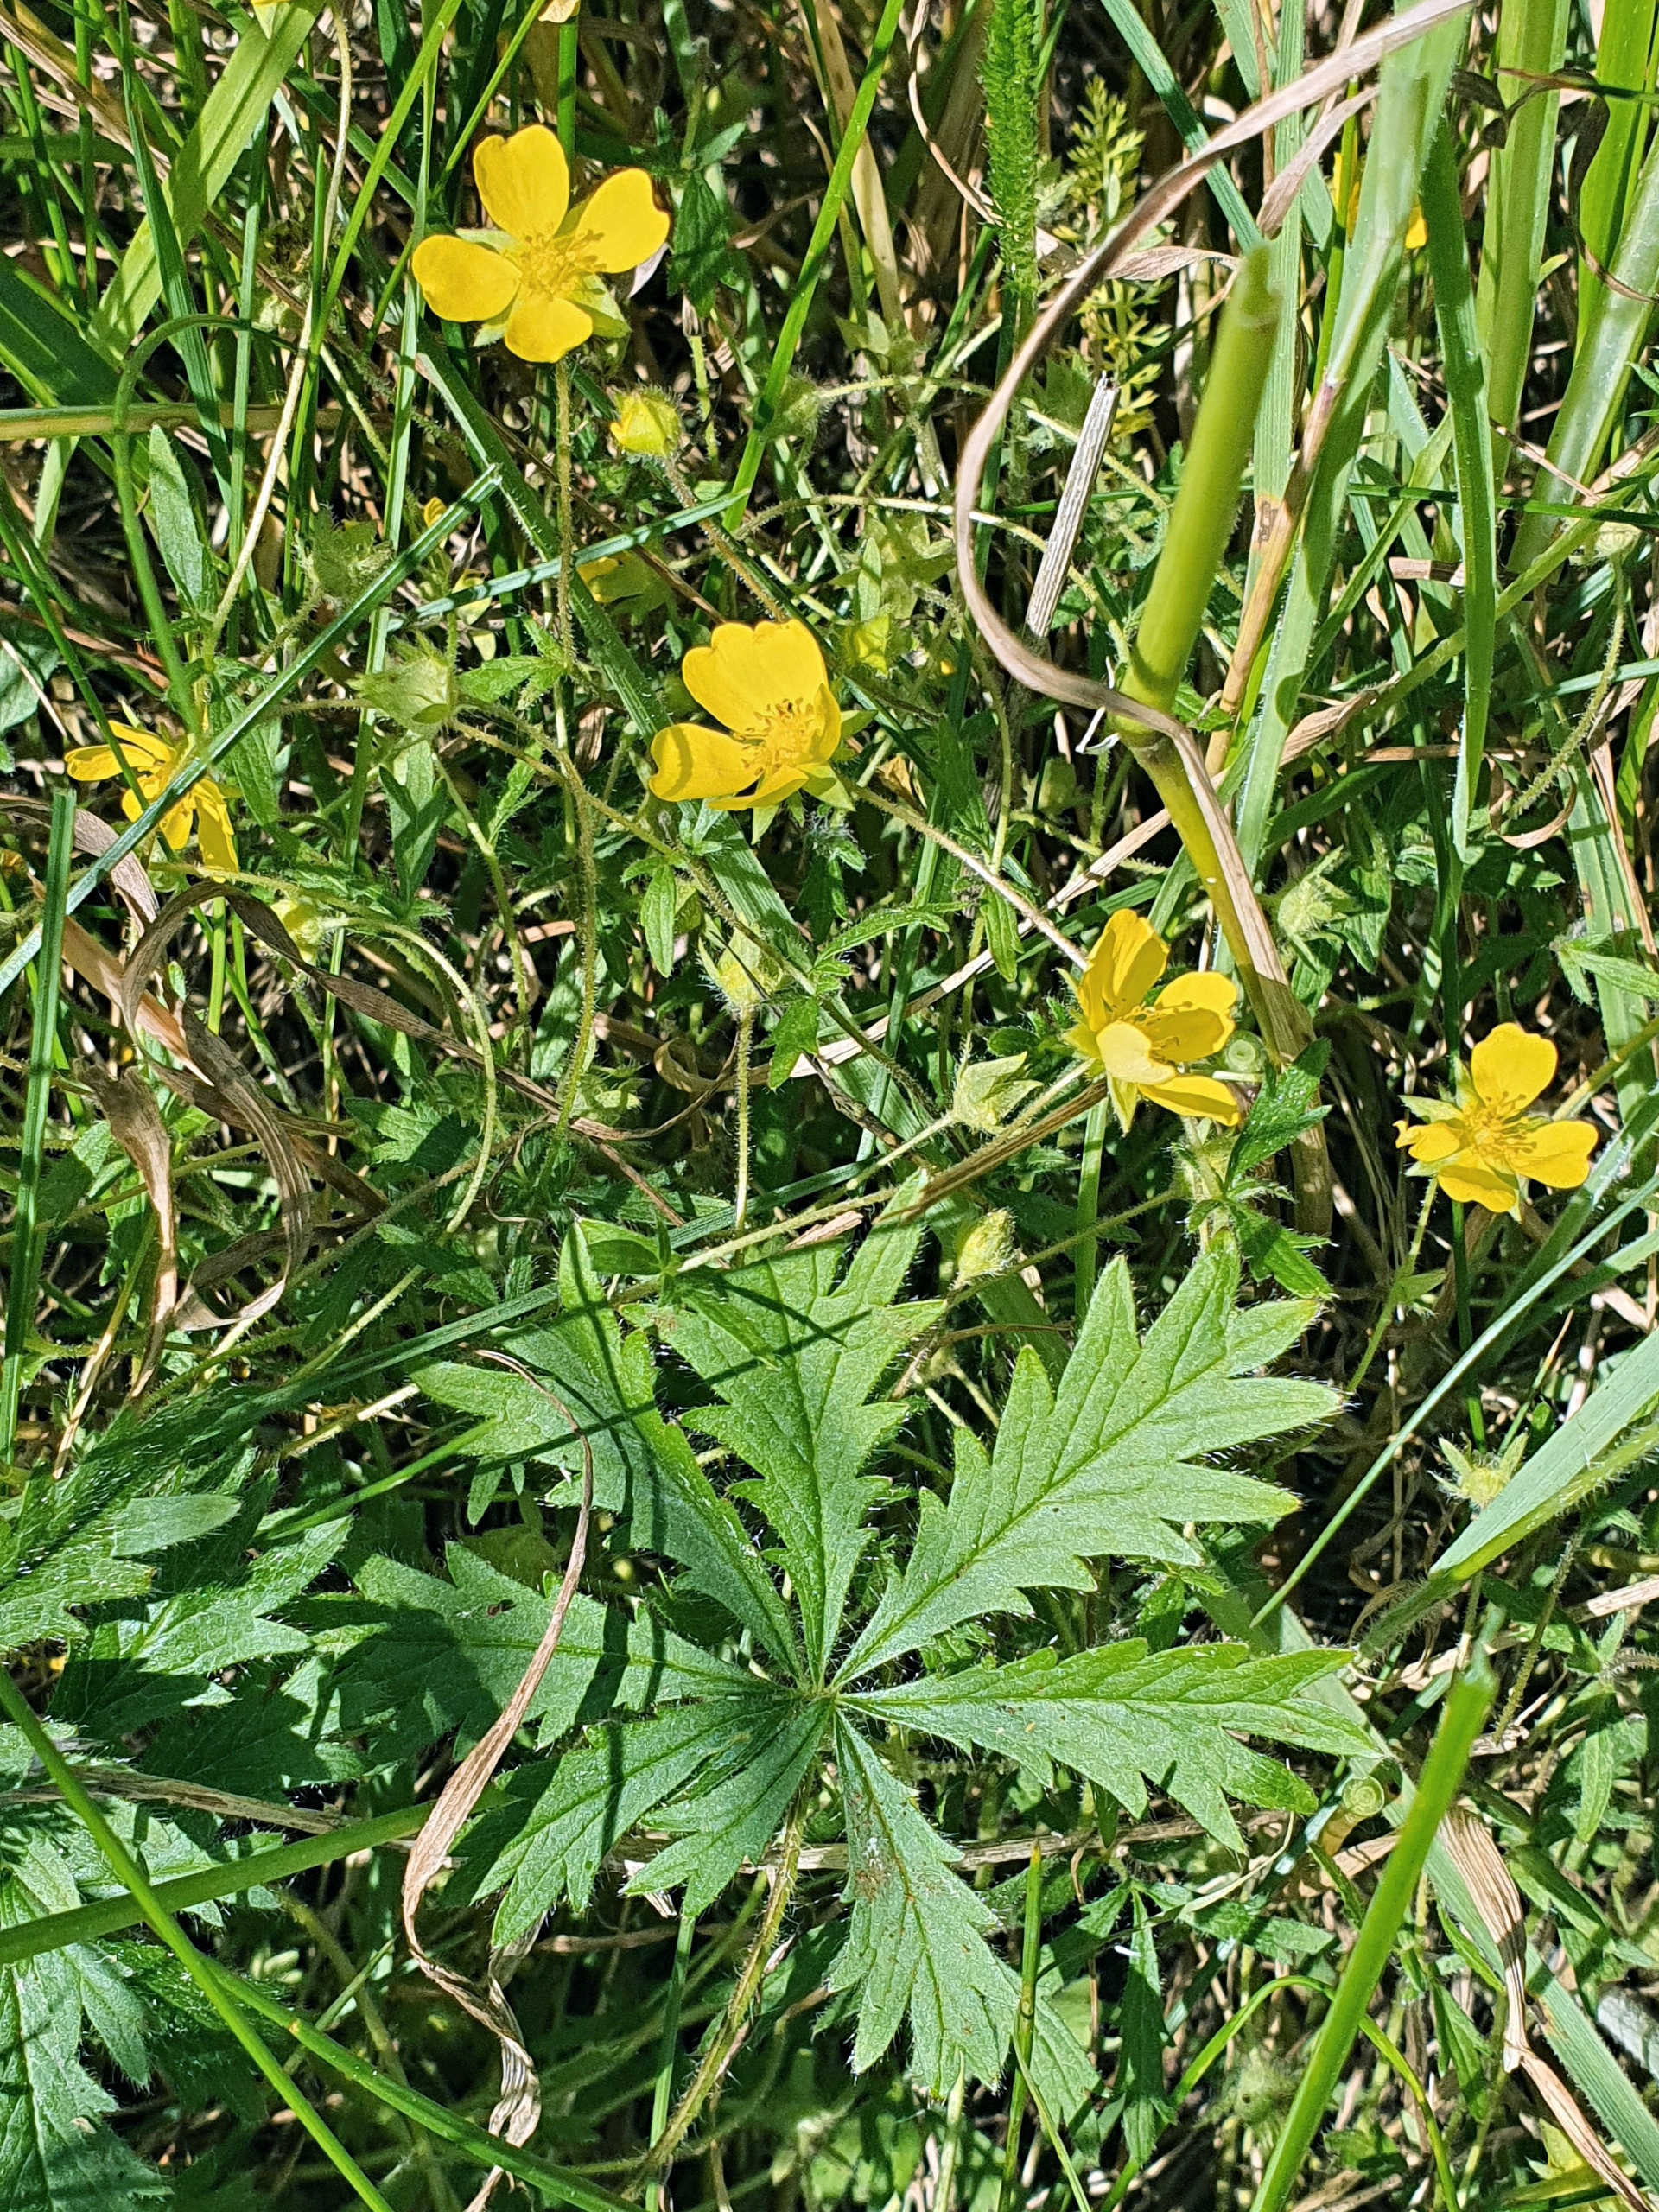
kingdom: Plantae
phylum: Tracheophyta
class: Magnoliopsida
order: Rosales
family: Rosaceae
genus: Potentilla
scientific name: Potentilla heptaphylla
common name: Mat potentil
